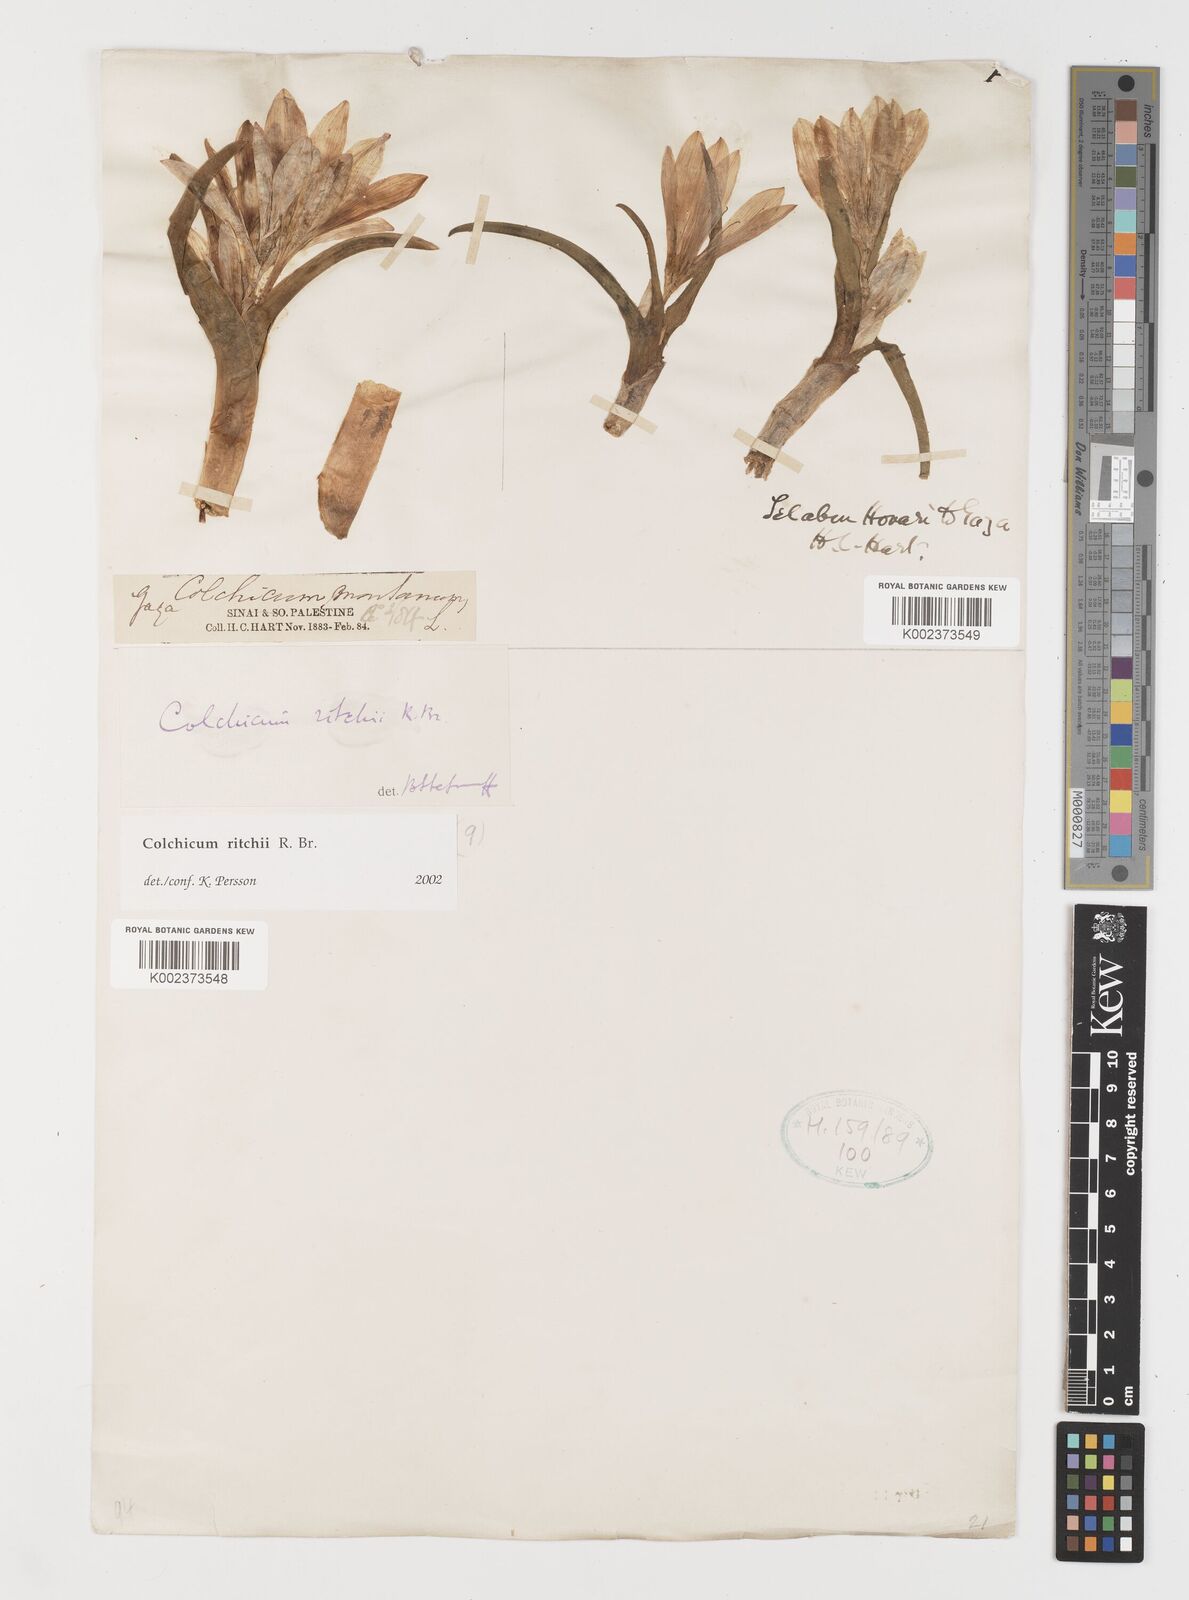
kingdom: Plantae
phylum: Tracheophyta
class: Liliopsida
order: Liliales
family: Colchicaceae
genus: Colchicum
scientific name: Colchicum ritchii
